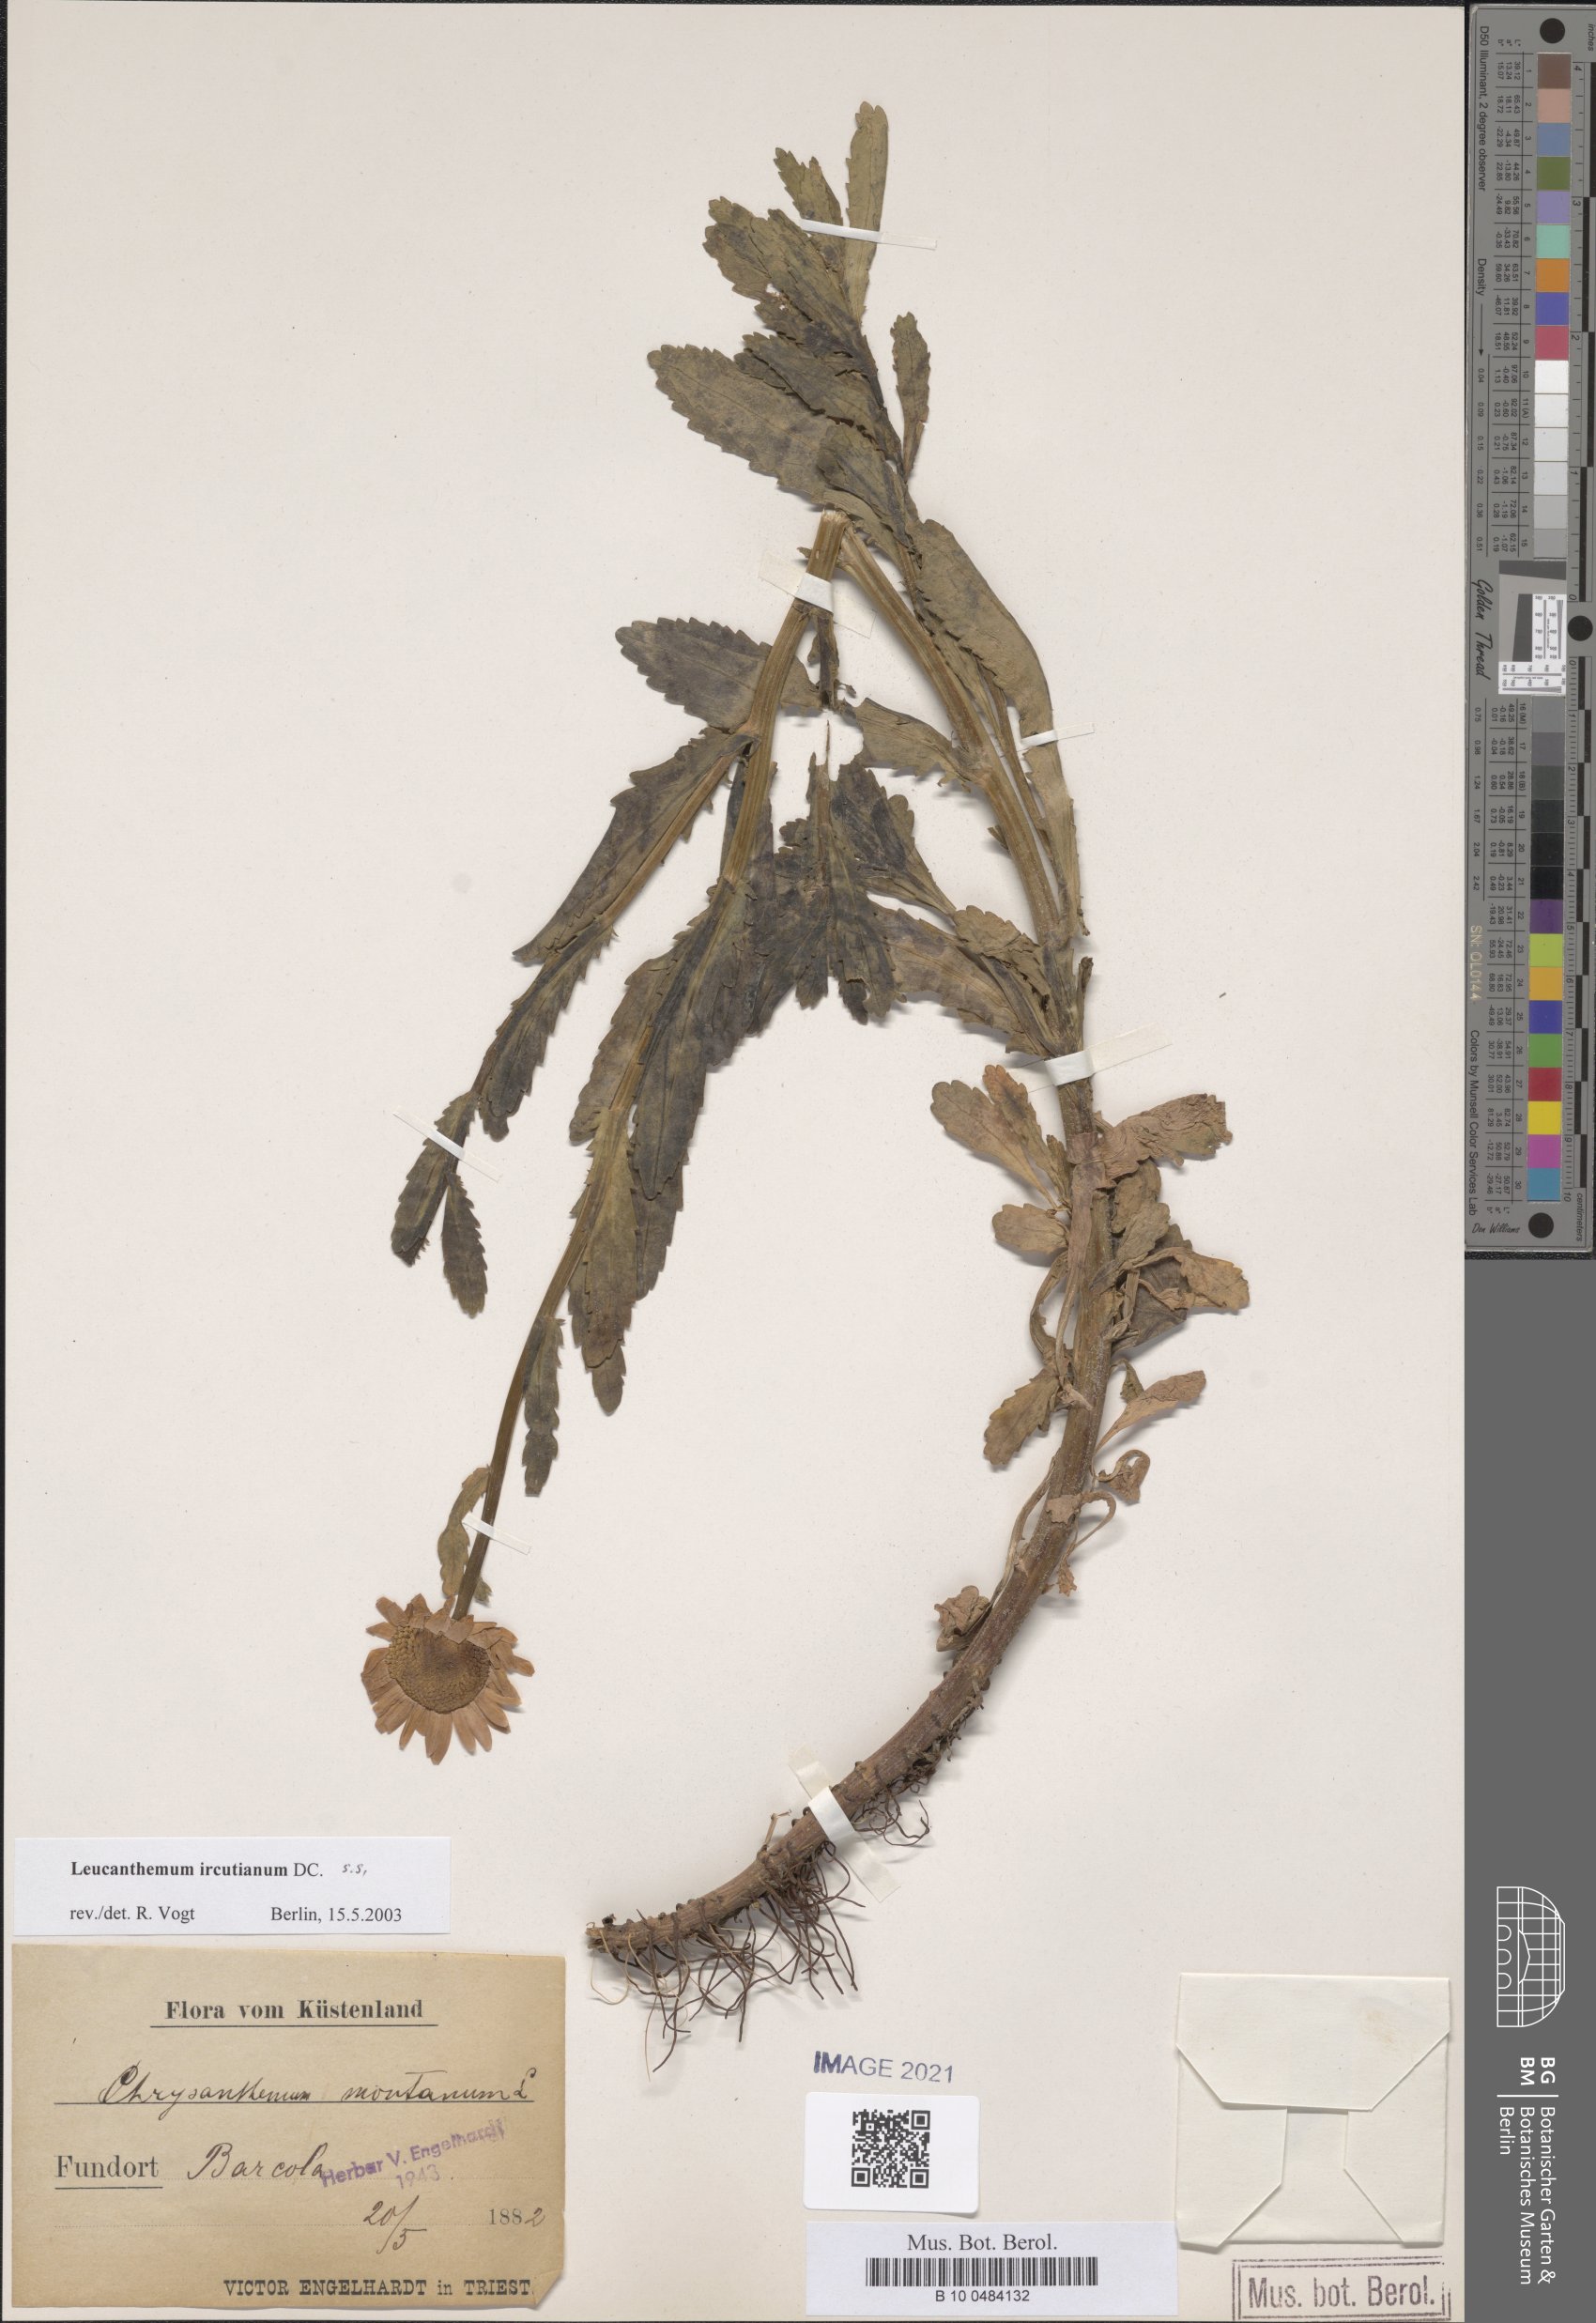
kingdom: Plantae
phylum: Tracheophyta
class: Magnoliopsida
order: Asterales
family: Asteraceae
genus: Leucanthemum
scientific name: Leucanthemum ircutianum
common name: Daisy
